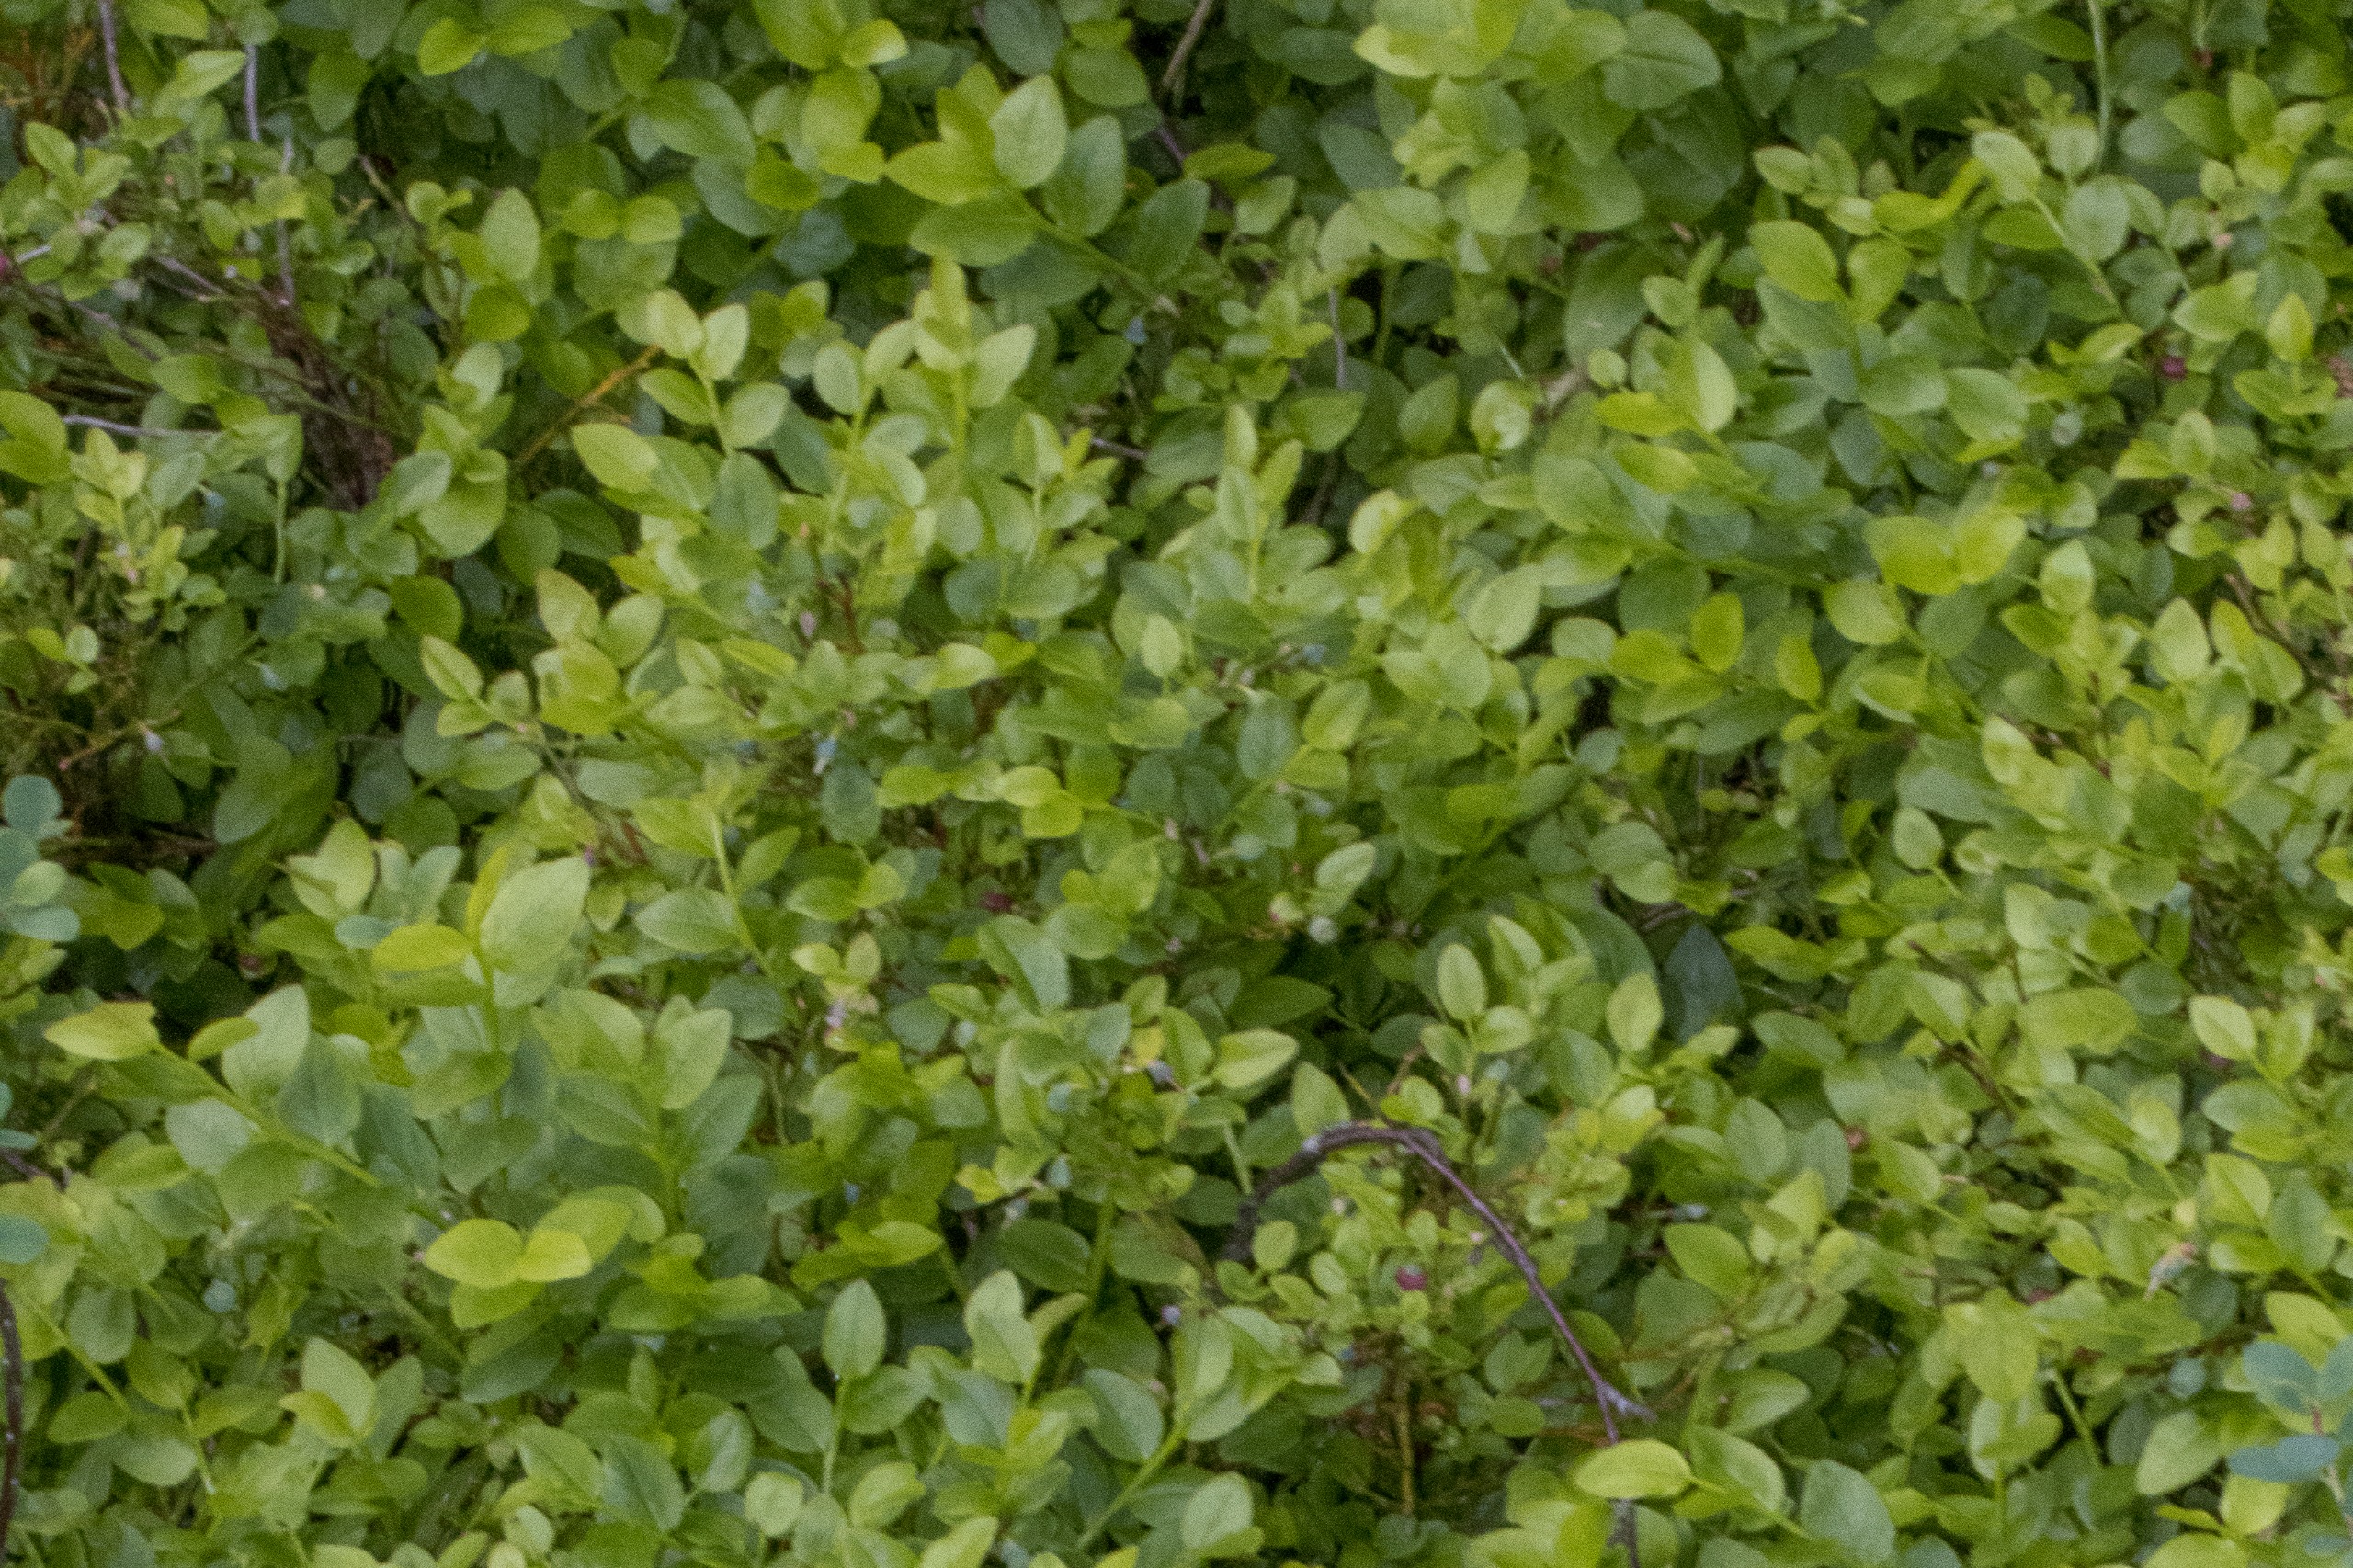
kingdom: Plantae
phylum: Tracheophyta
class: Magnoliopsida
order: Ericales
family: Ericaceae
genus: Vaccinium
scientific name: Vaccinium myrtillus
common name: Blåbær
